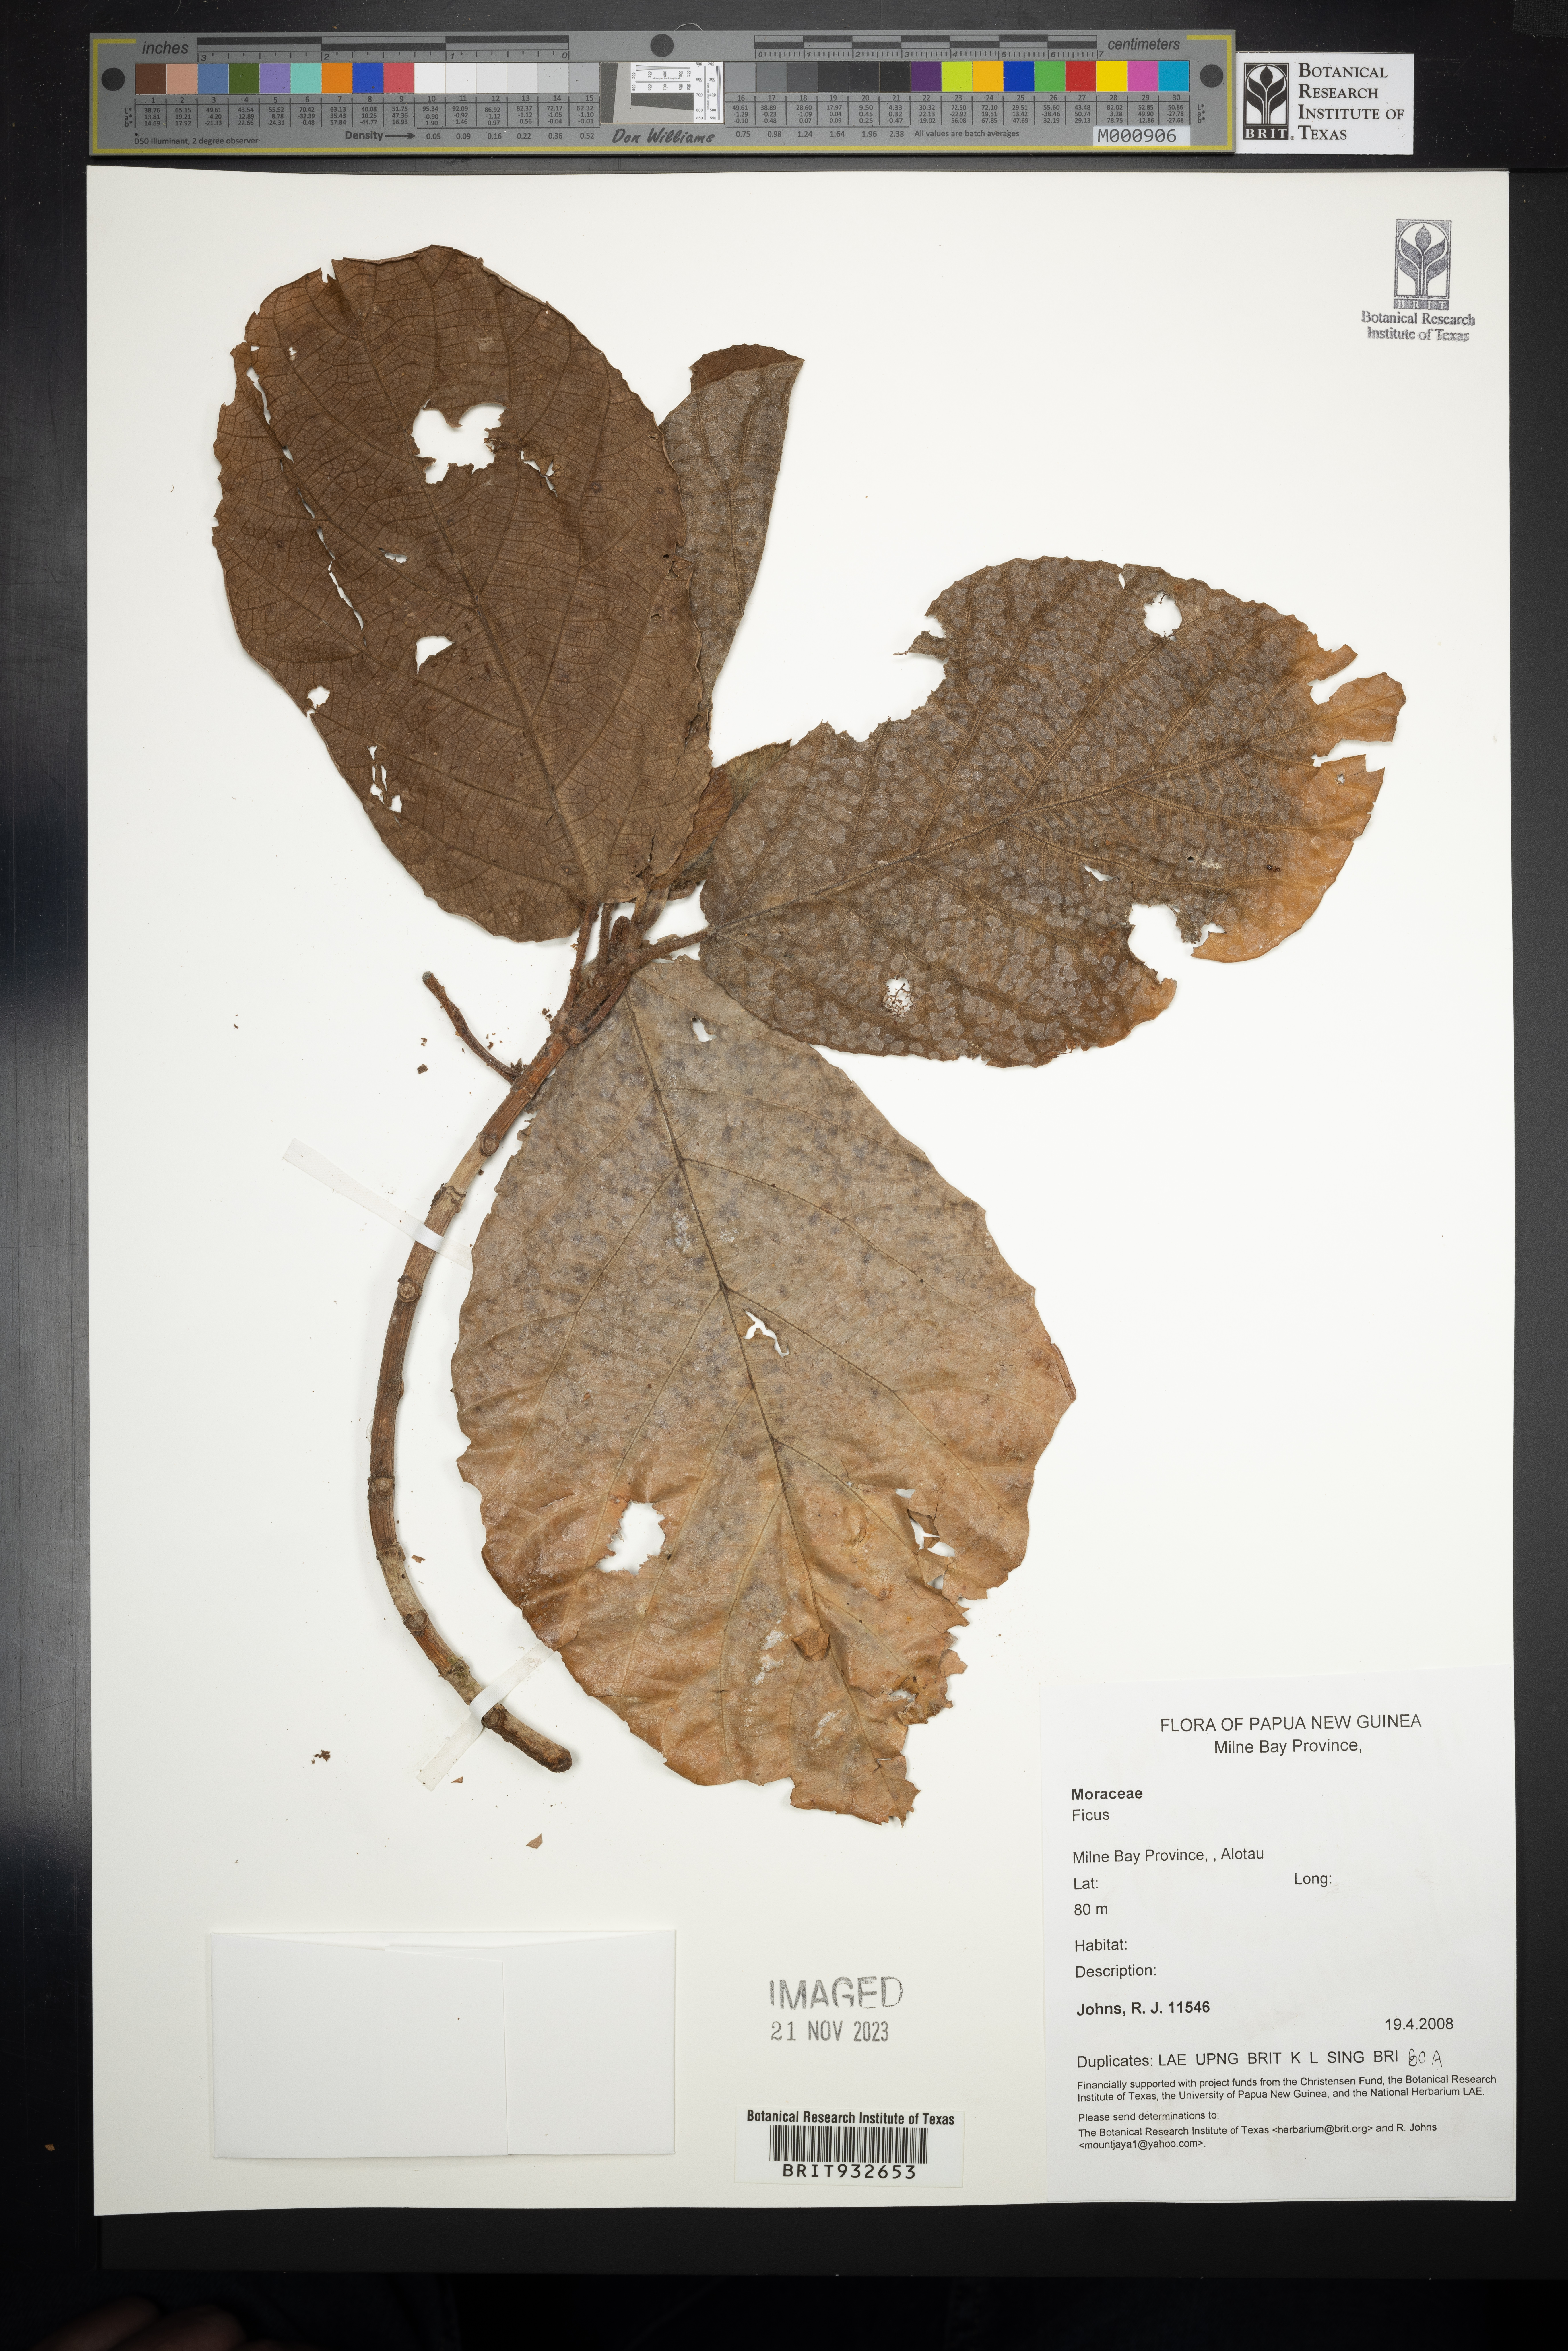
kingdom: Plantae
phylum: Tracheophyta
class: Magnoliopsida
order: Rosales
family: Moraceae
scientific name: Moraceae
